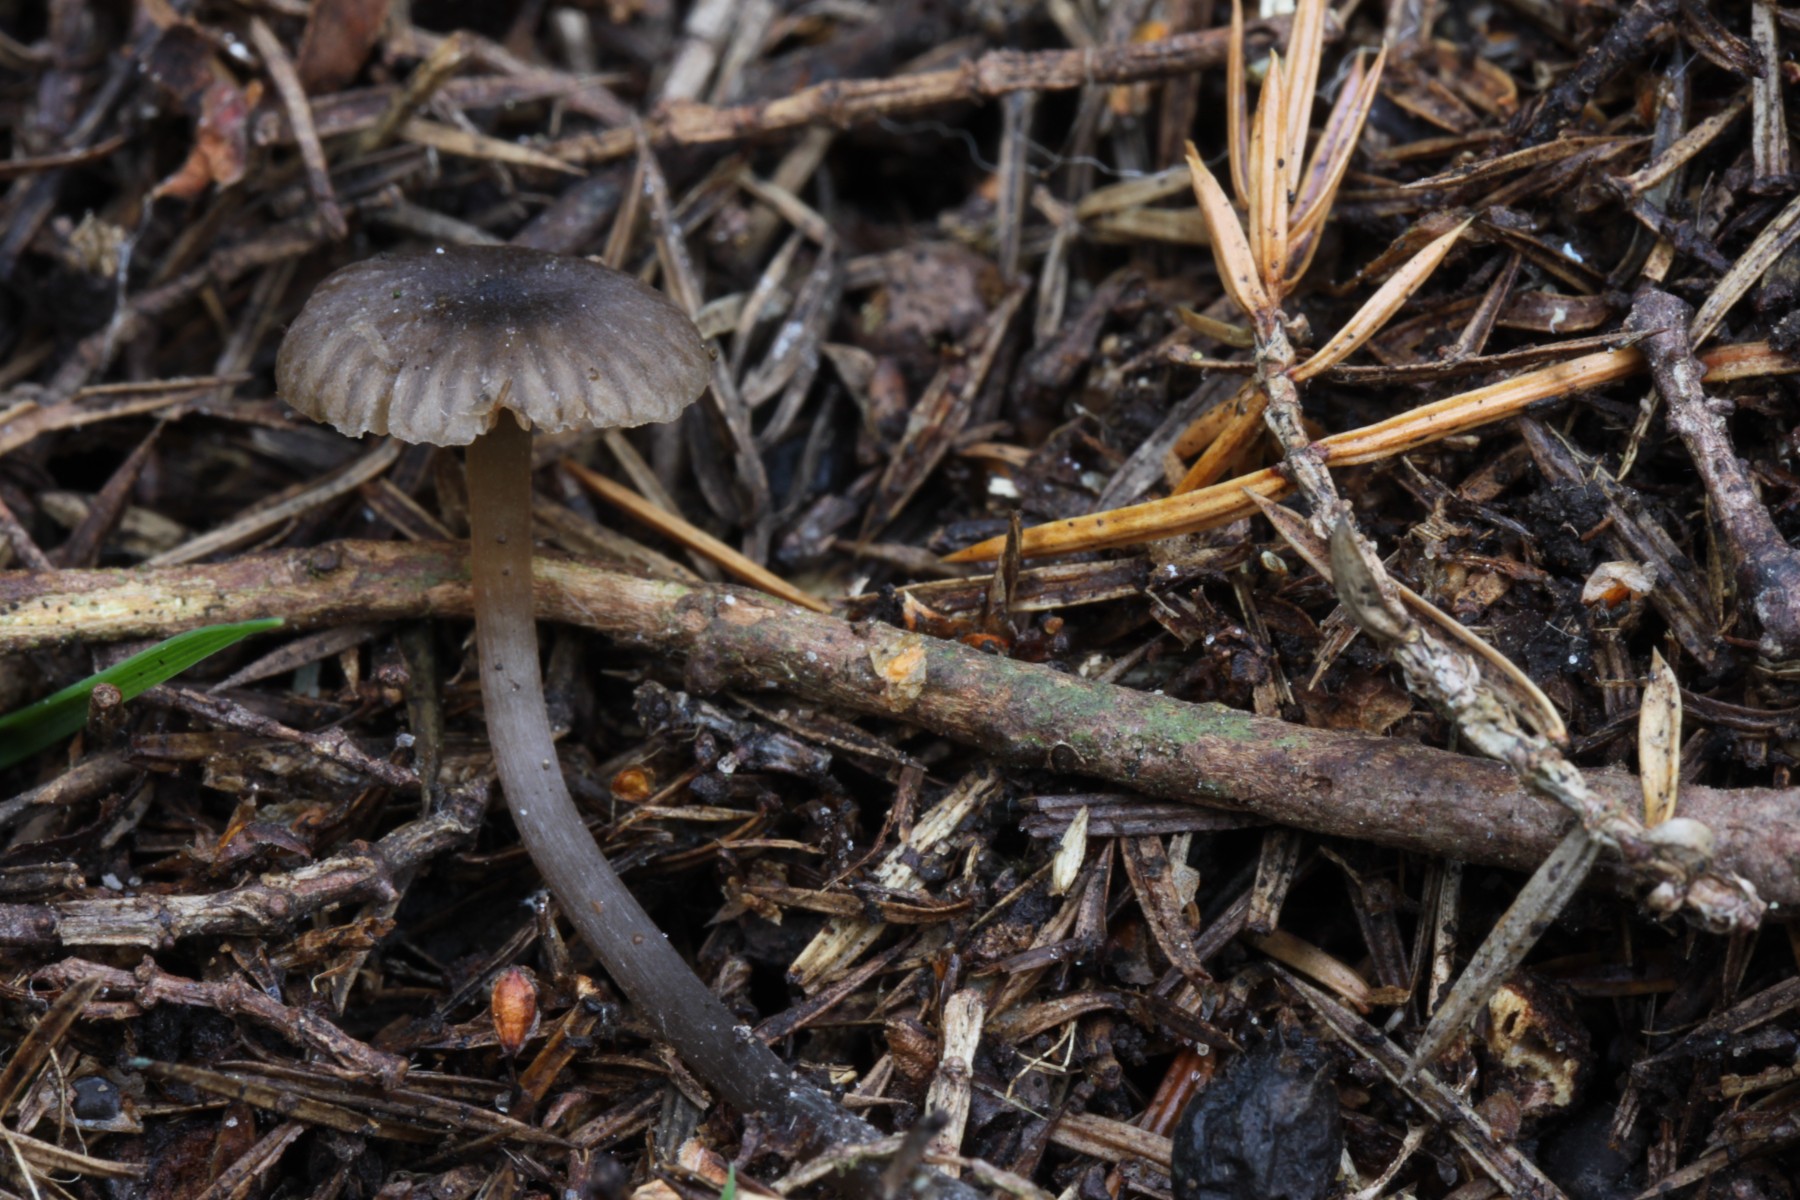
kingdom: Fungi
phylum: Basidiomycota
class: Agaricomycetes
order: Agaricales
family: Entolomataceae
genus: Entoloma
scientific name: Entoloma juniperinum
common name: ene-rødblad
